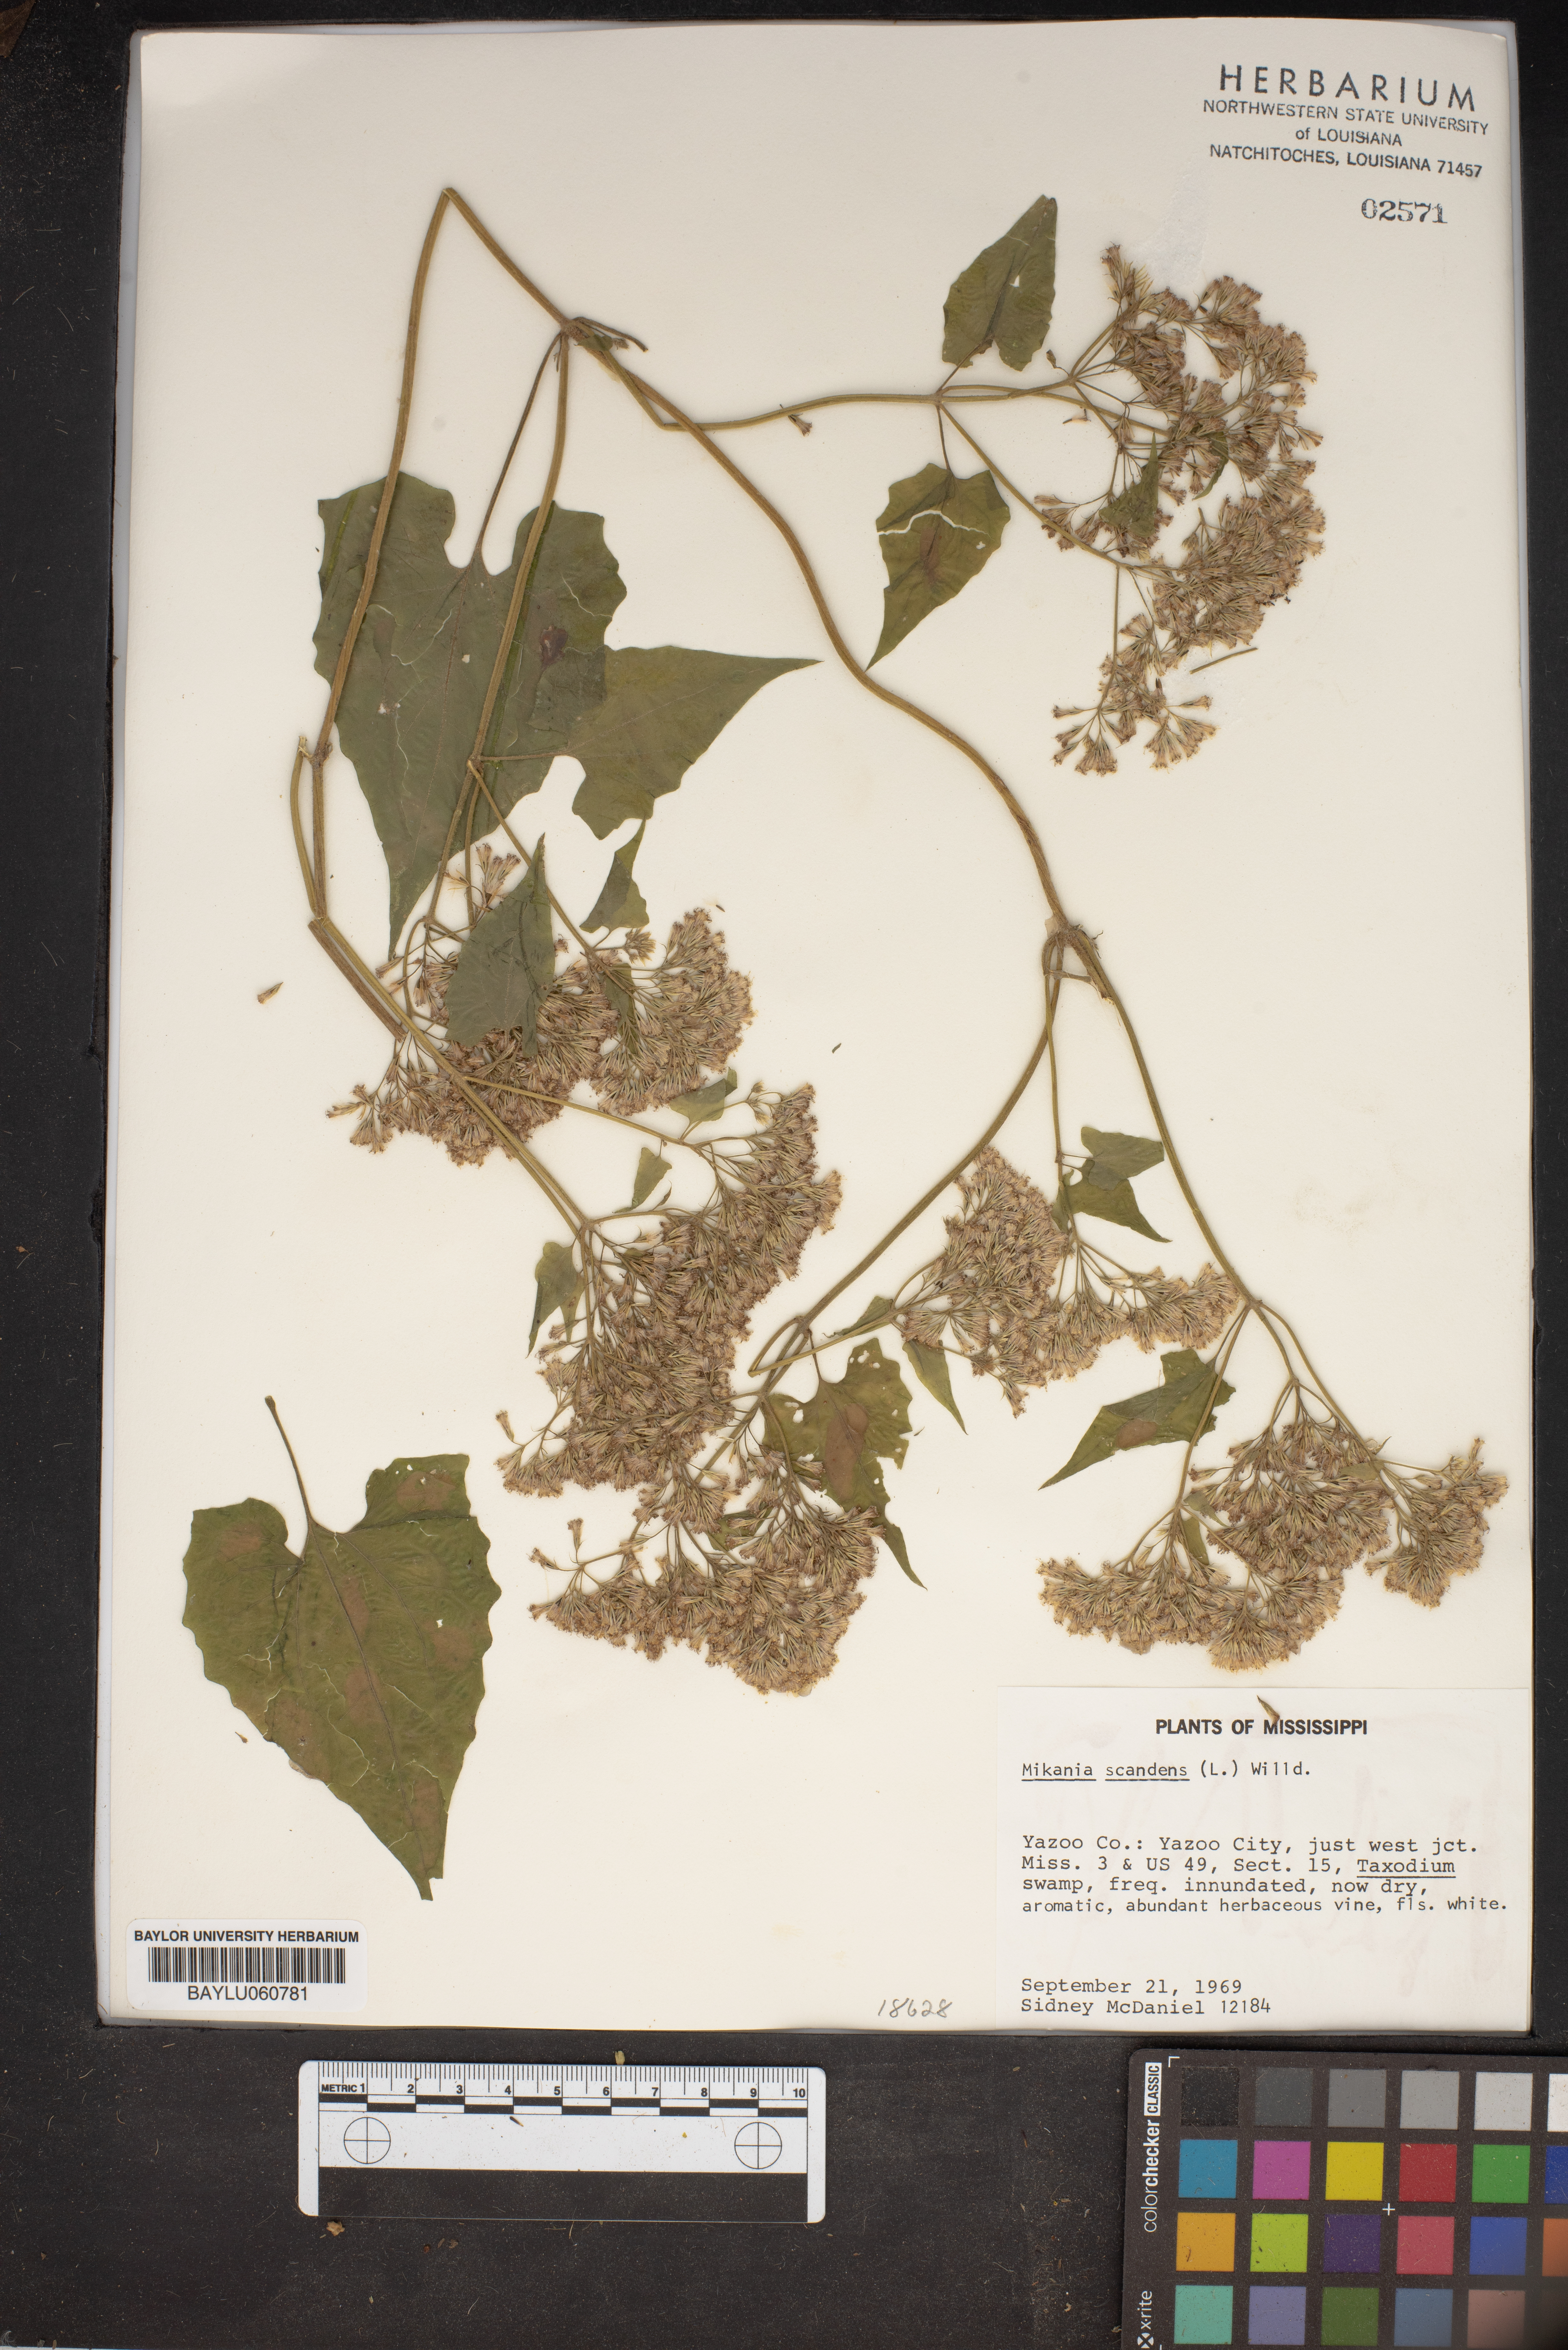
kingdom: Plantae
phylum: Tracheophyta
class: Magnoliopsida
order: Asterales
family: Asteraceae
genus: Mikania
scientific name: Mikania scandens
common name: Climbing hempvine
